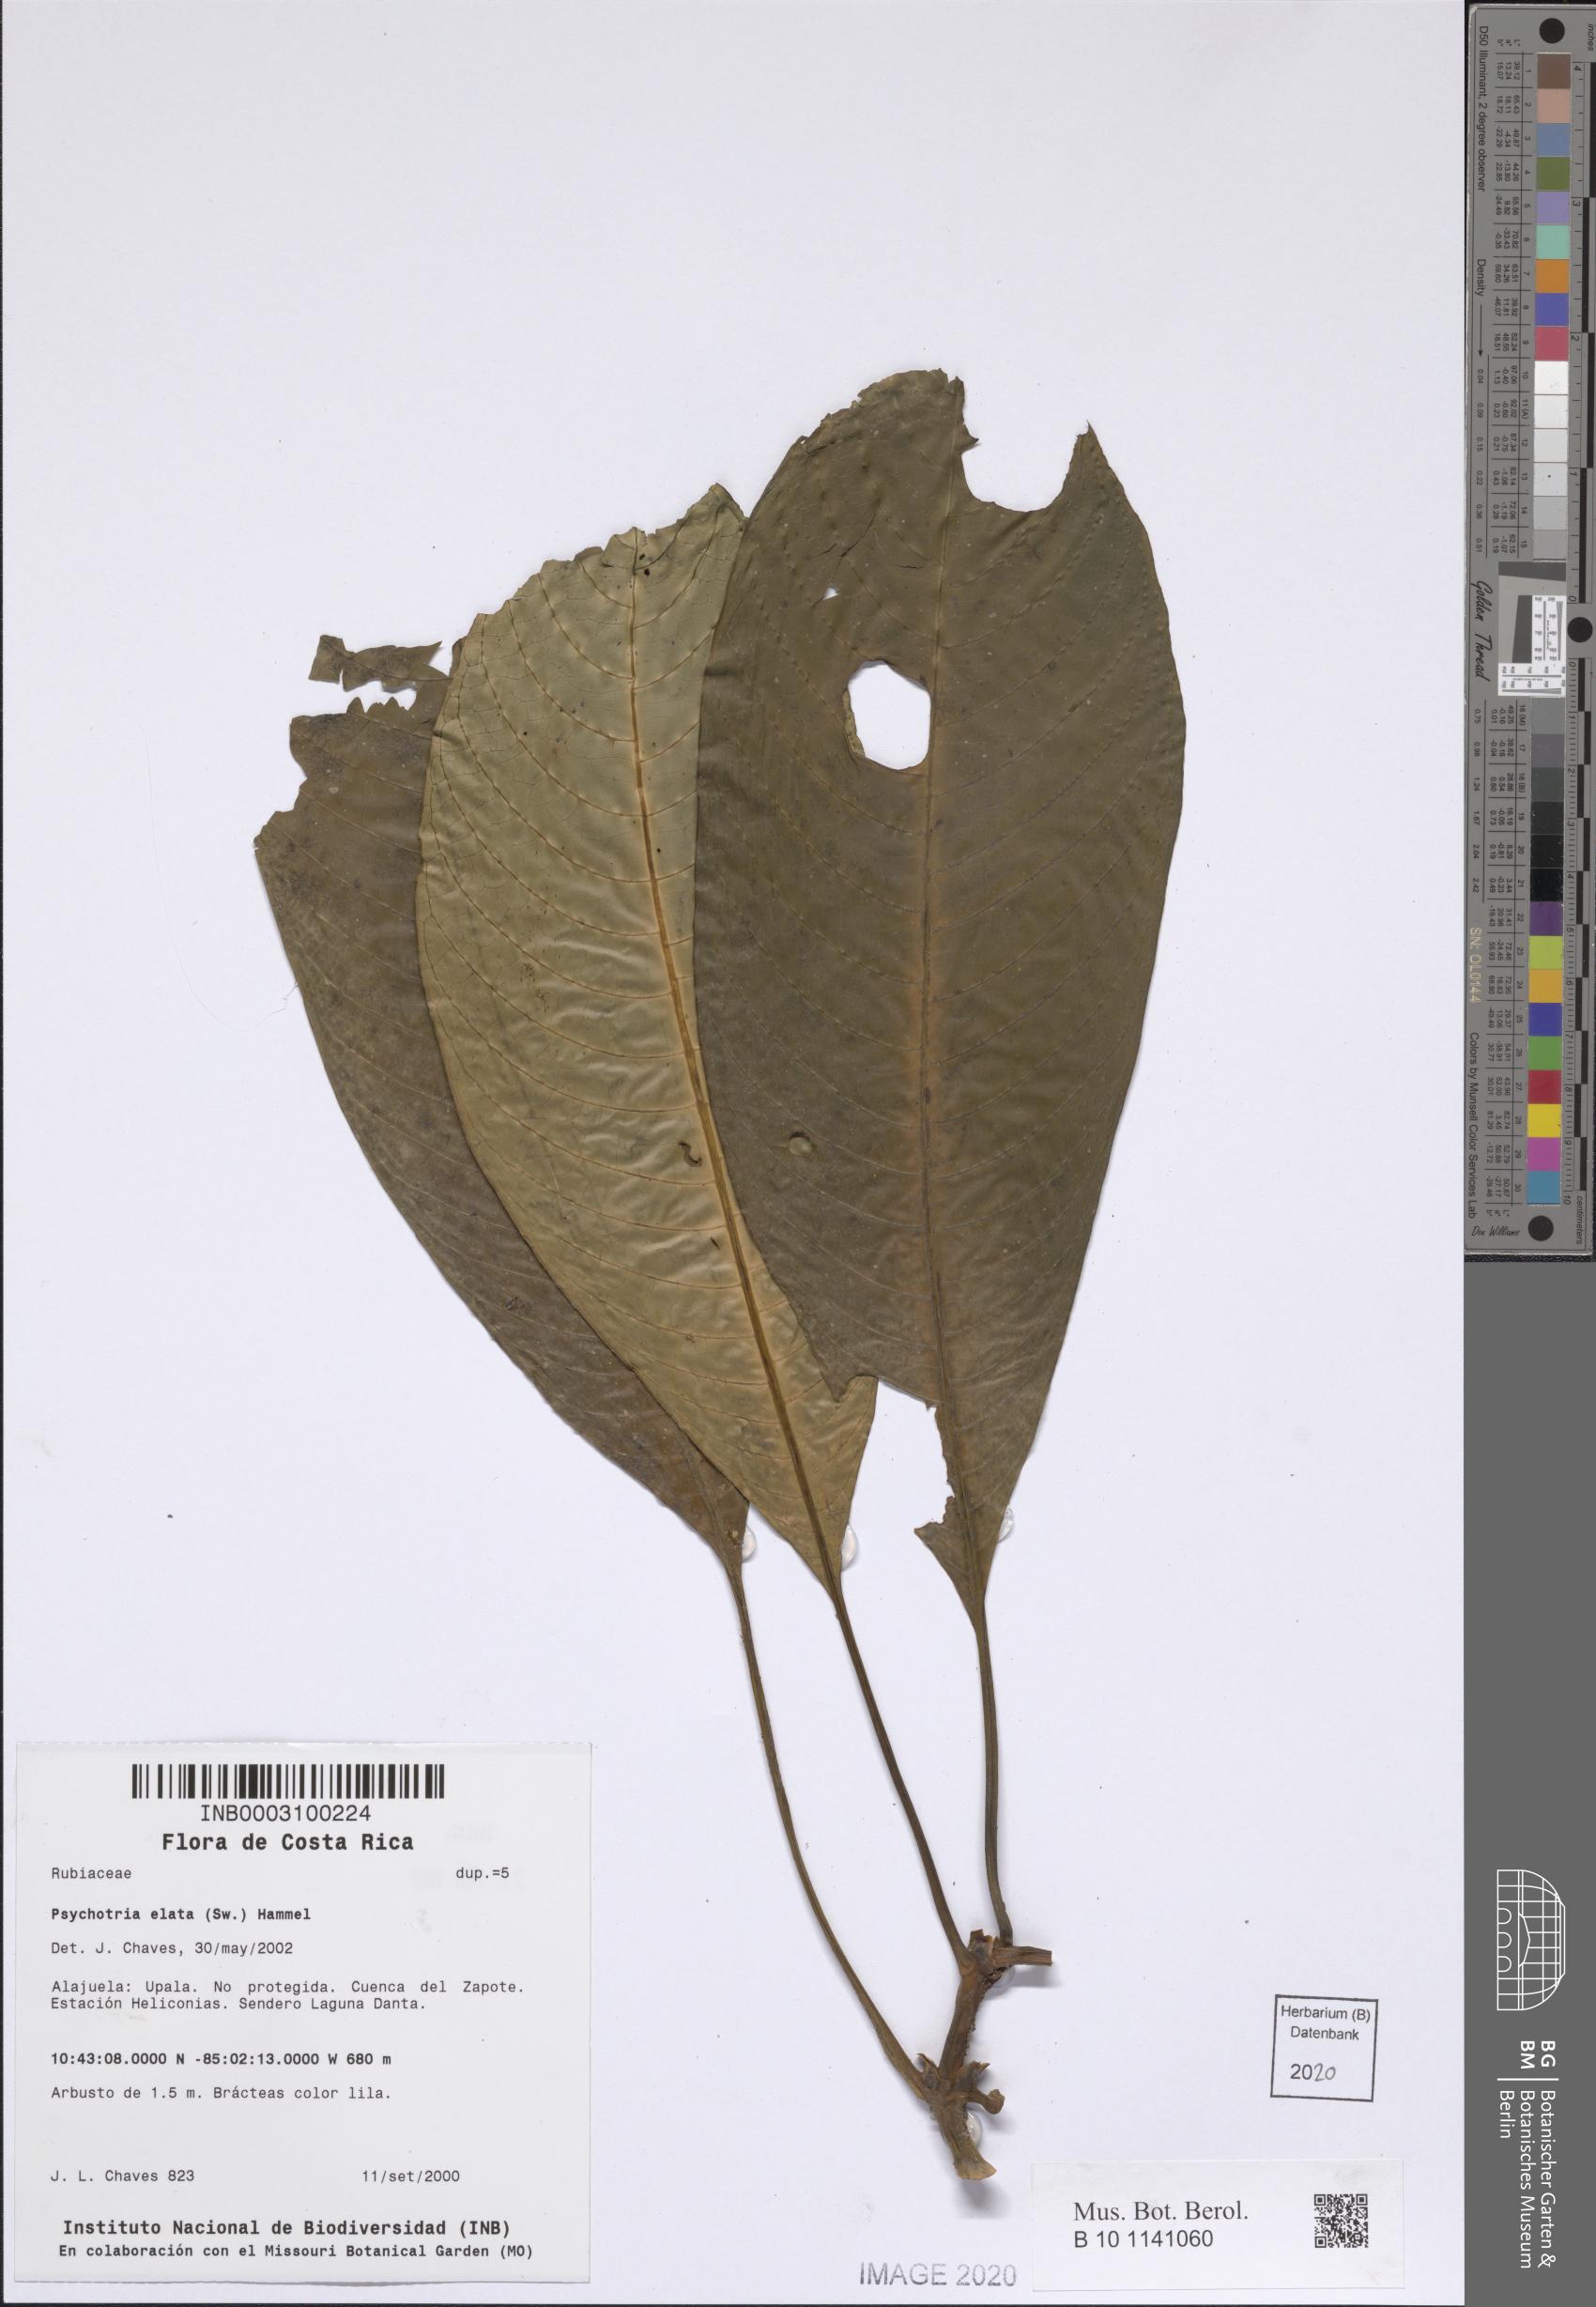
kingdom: Plantae
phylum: Tracheophyta
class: Magnoliopsida
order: Gentianales
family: Rubiaceae
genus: Palicourea
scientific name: Palicourea elata
